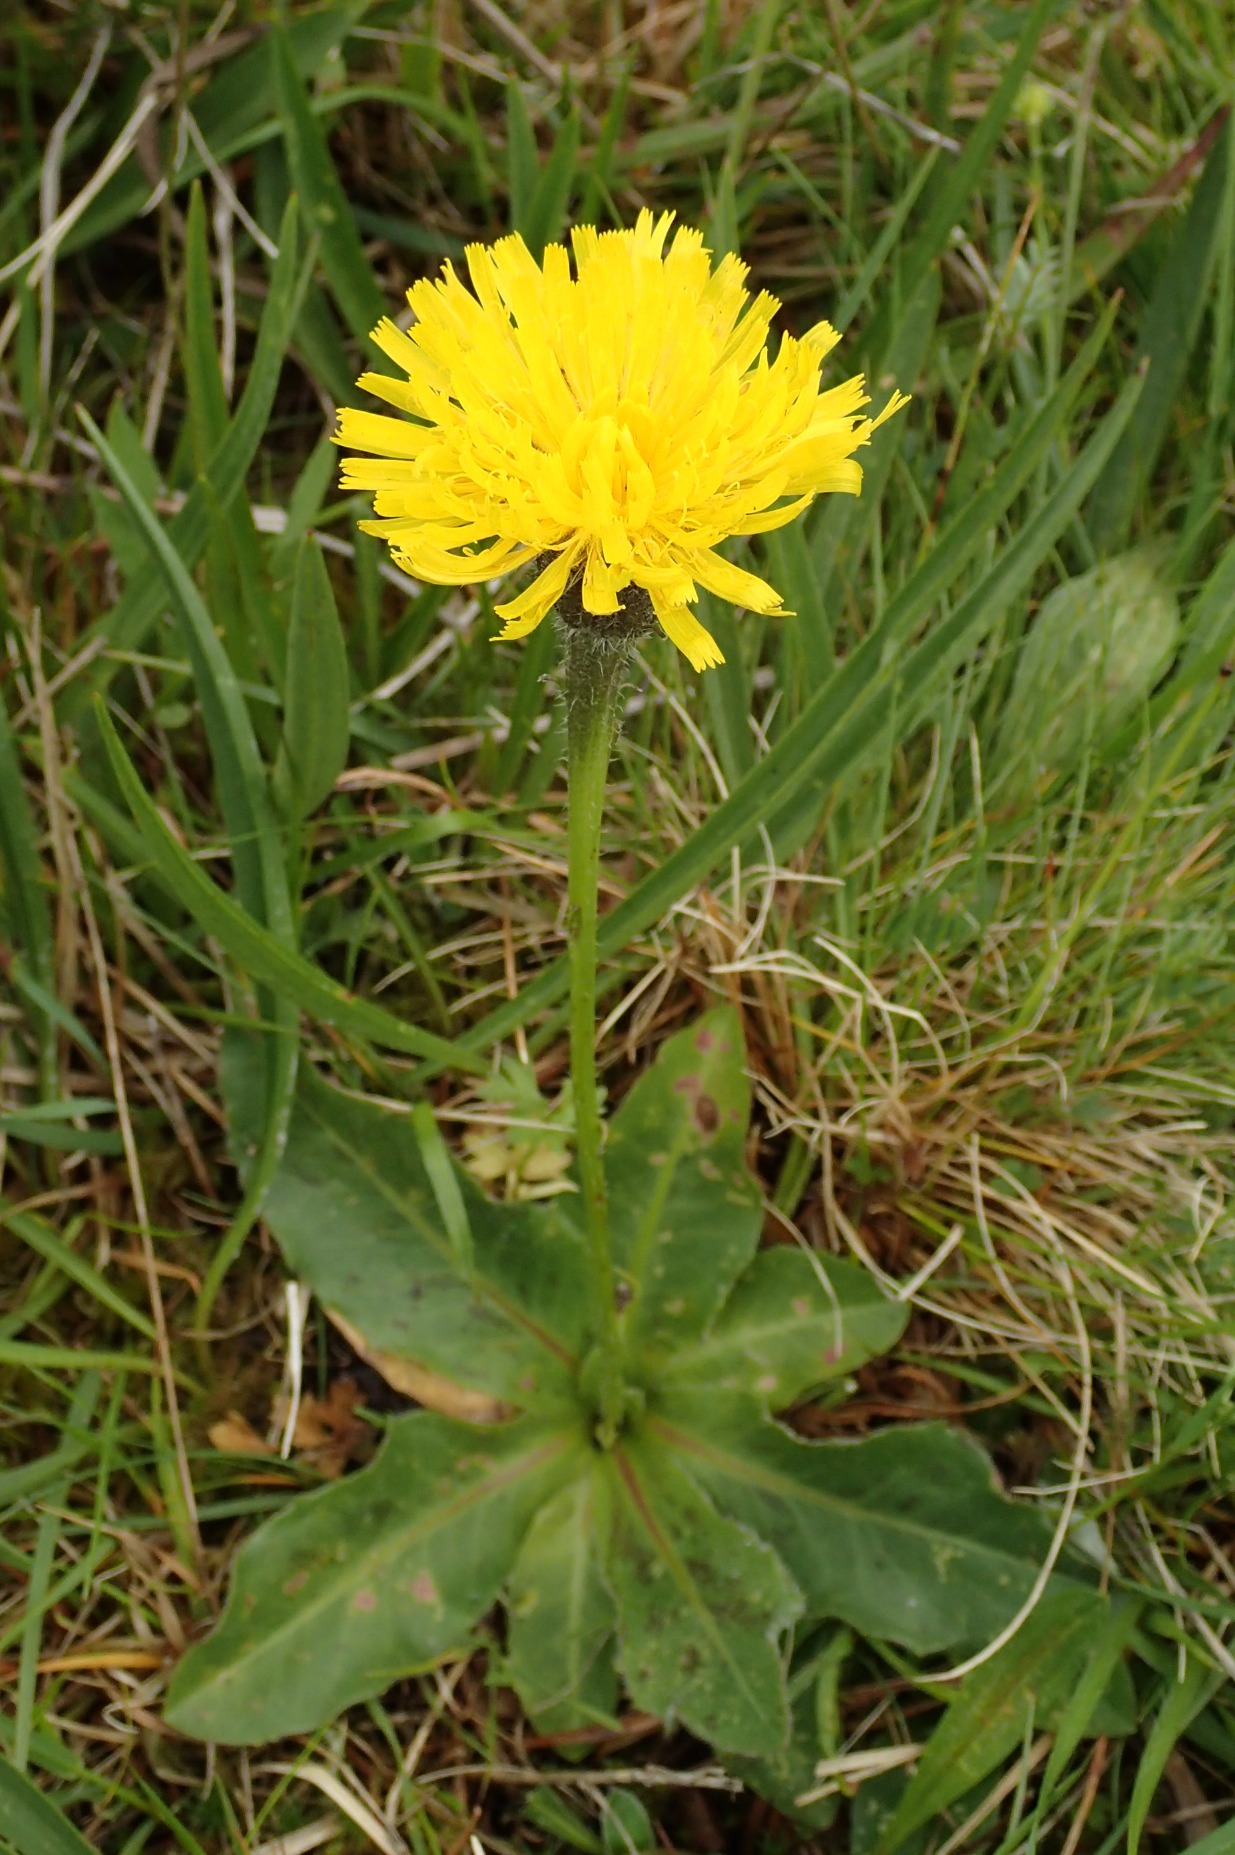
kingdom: Plantae
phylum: Tracheophyta
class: Magnoliopsida
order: Asterales
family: Asteraceae
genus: Trommsdorffia
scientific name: Trommsdorffia maculata
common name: Plettet kongepen
